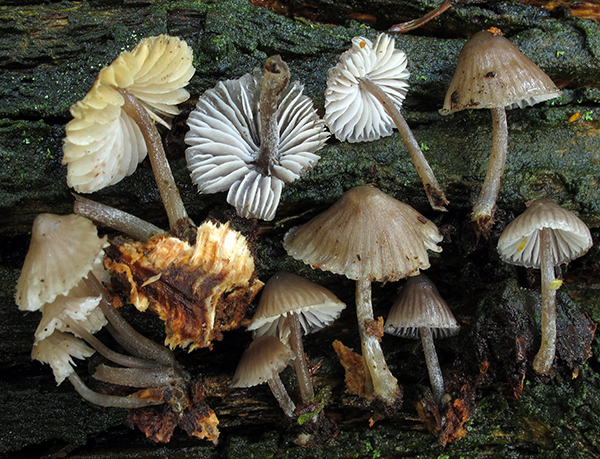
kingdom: Fungi
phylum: Basidiomycota
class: Agaricomycetes
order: Agaricales
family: Mycenaceae
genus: Mycena
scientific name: Mycena silvae-pristinae
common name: naturskovs-huesvamp
